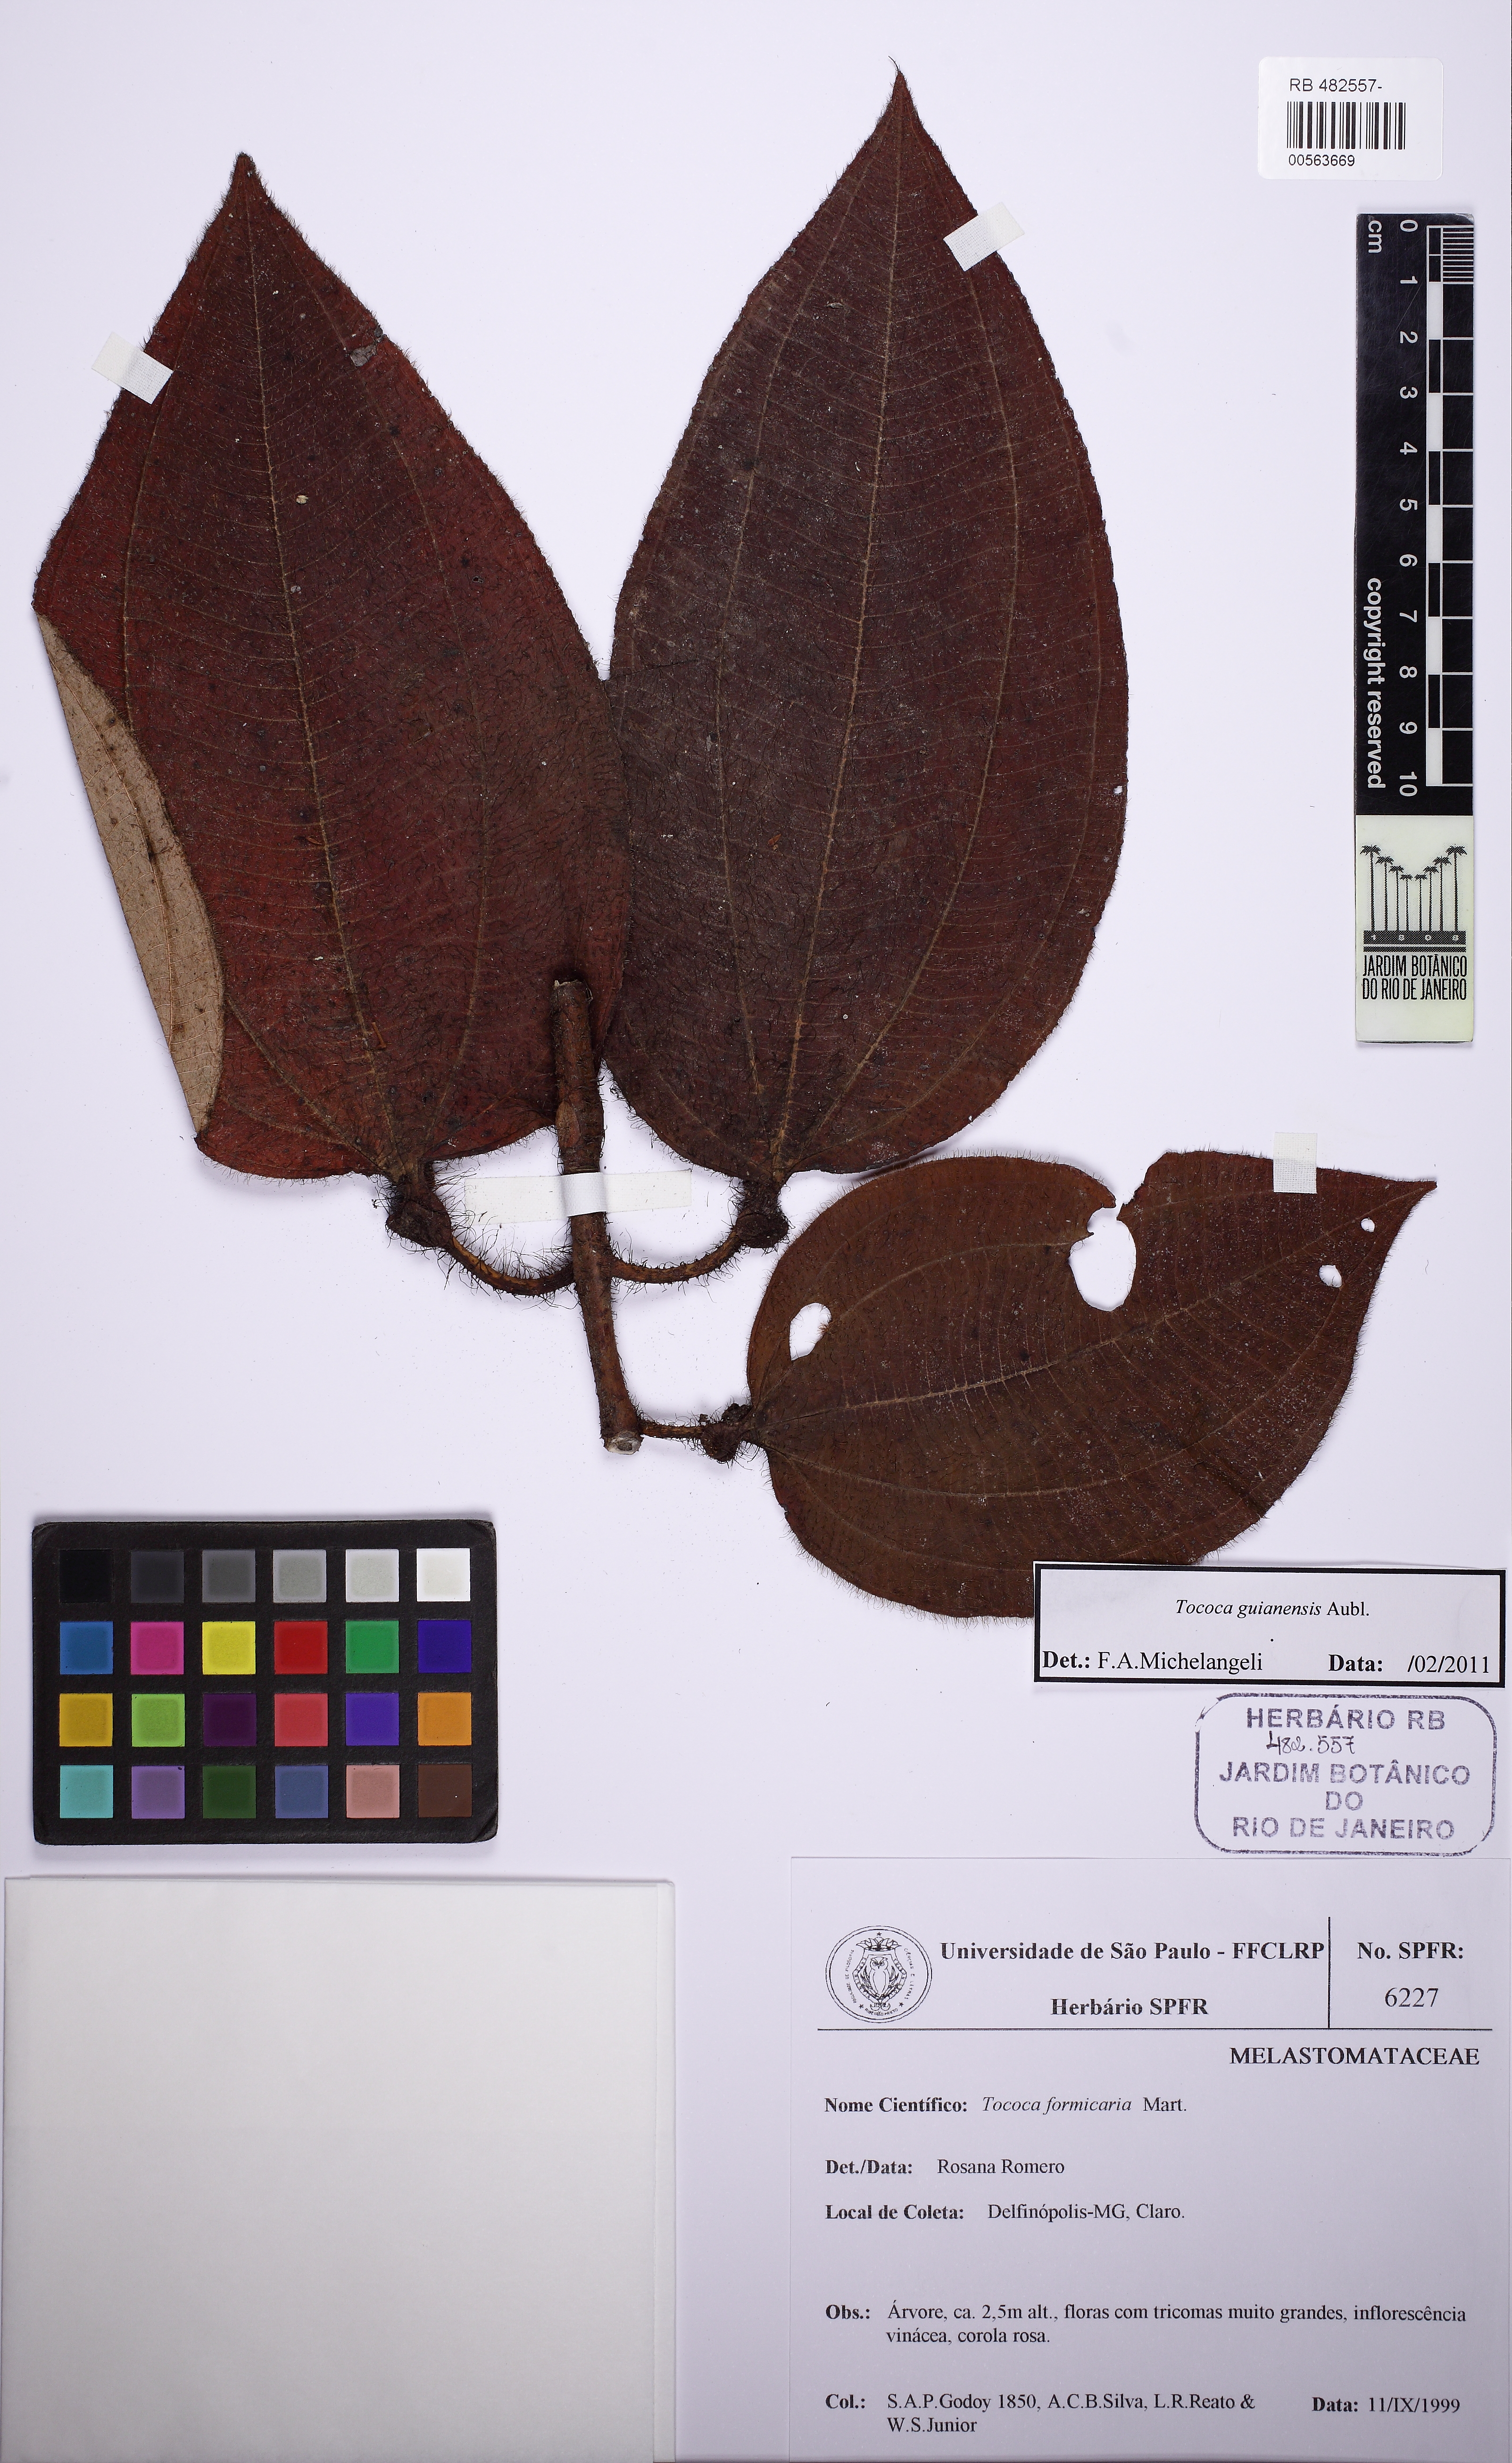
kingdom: Plantae
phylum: Tracheophyta
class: Magnoliopsida
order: Myrtales
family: Melastomataceae
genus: Miconia
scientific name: Miconia tococa
